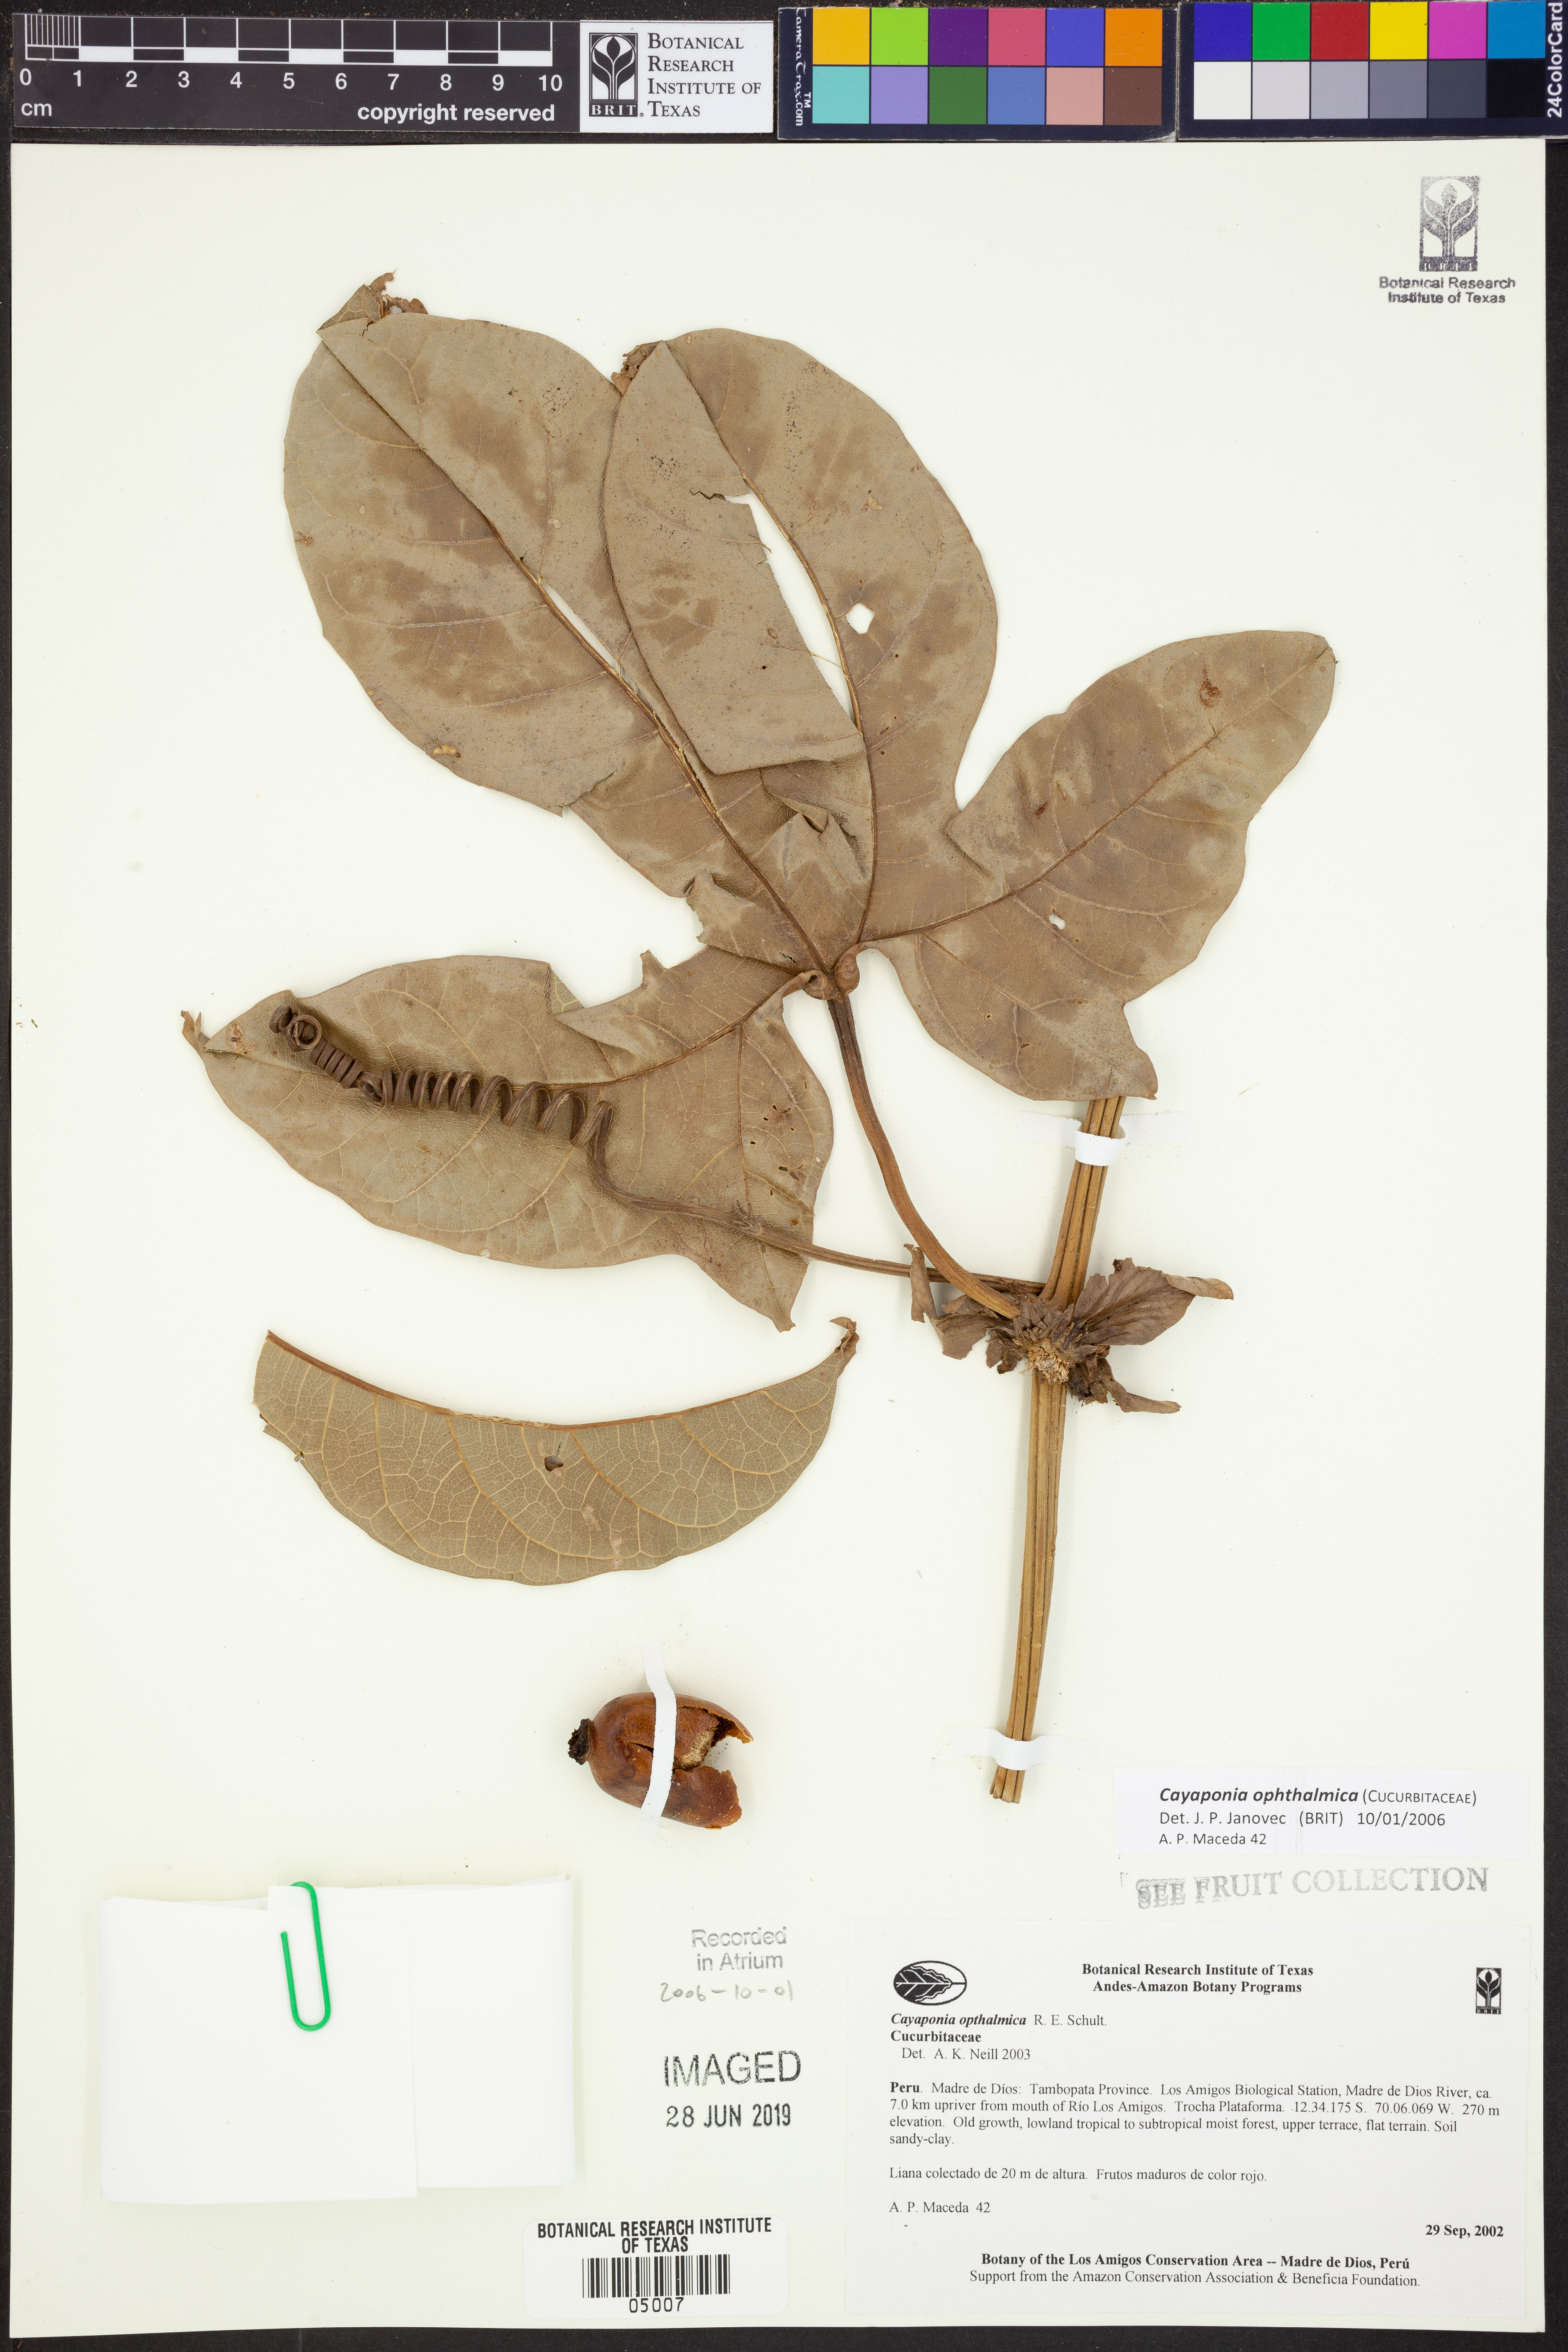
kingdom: Plantae
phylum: Tracheophyta
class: Magnoliopsida
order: Cucurbitales
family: Cucurbitaceae
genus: Cayaponia
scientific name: Cayaponia
